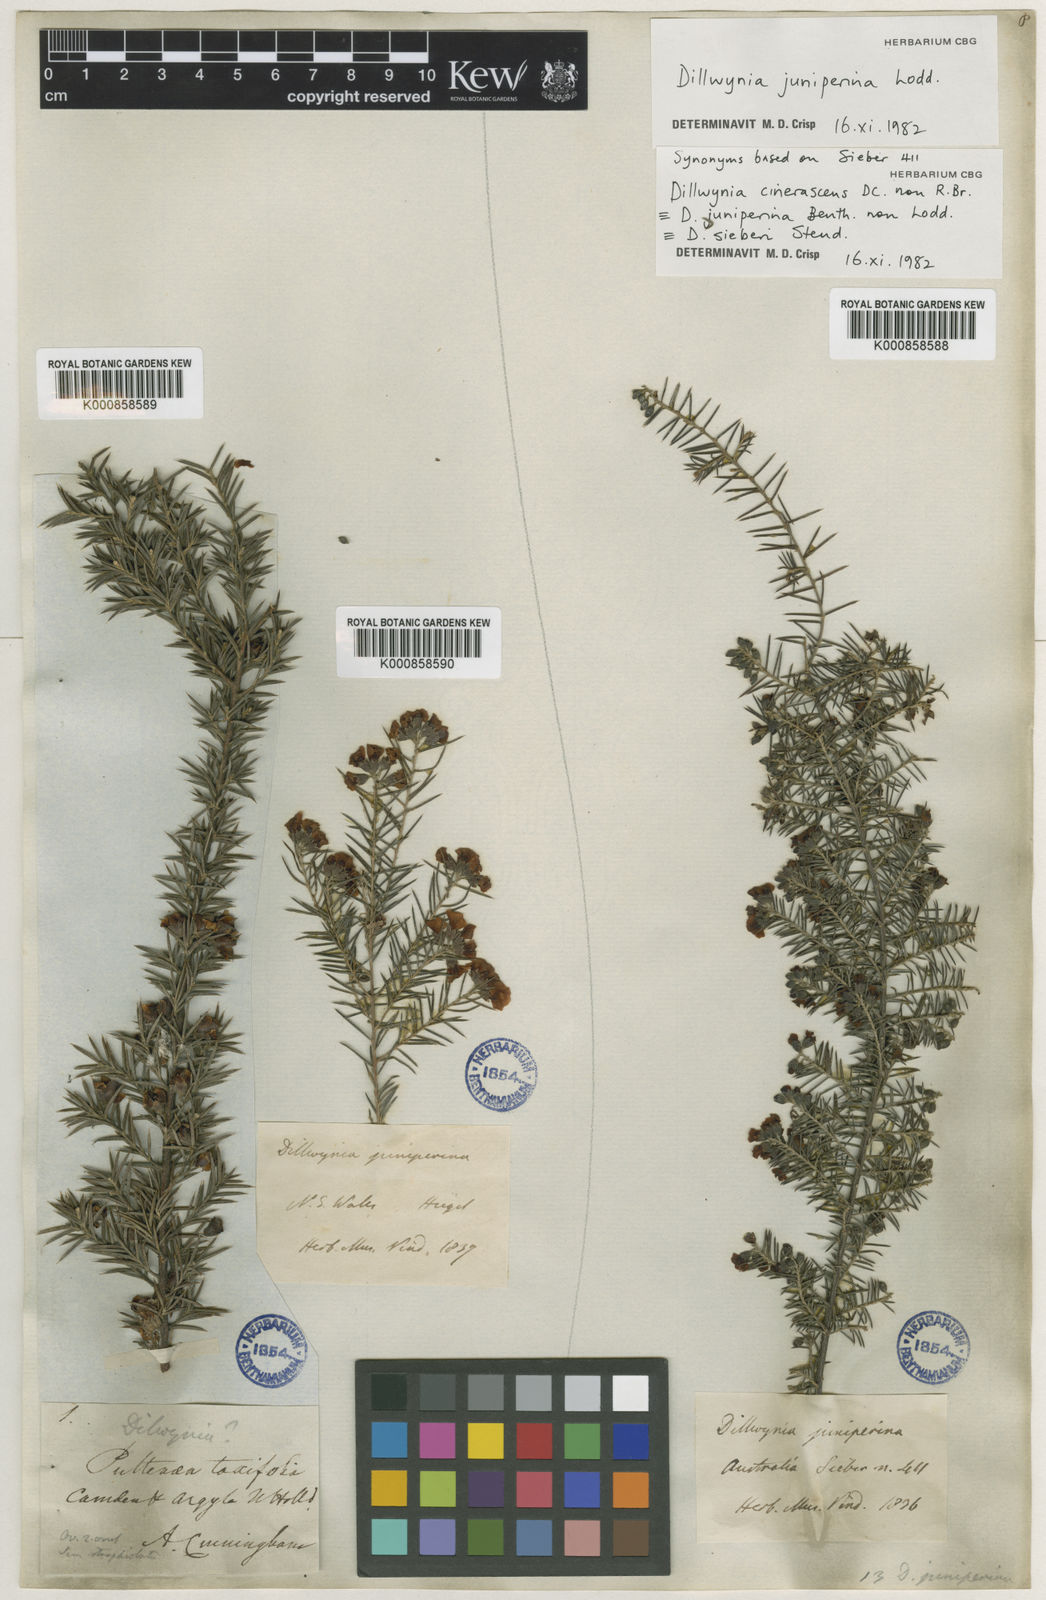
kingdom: Plantae
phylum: Tracheophyta
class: Magnoliopsida
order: Fabales
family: Fabaceae
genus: Dillwynia
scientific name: Dillwynia juniperina
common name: Prickly parrot pea
